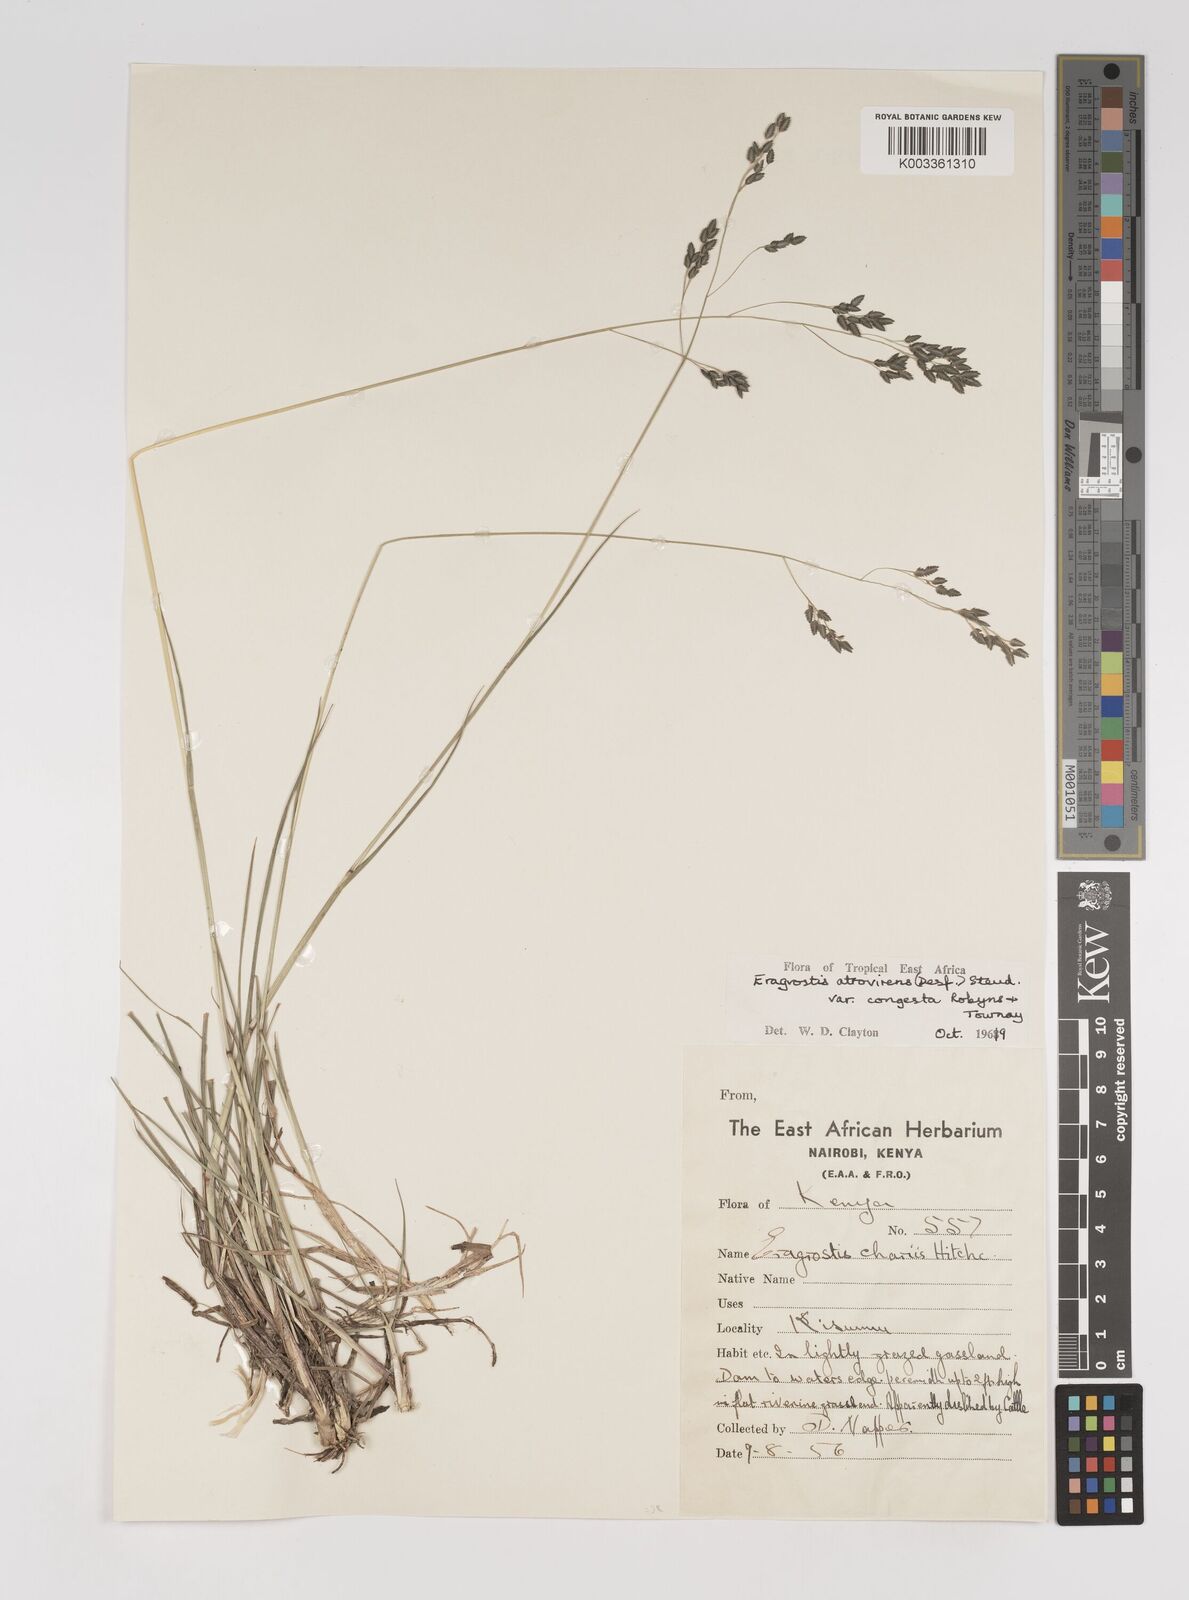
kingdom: Plantae
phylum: Tracheophyta
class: Liliopsida
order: Poales
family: Poaceae
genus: Eragrostis
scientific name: Eragrostis botryodes
